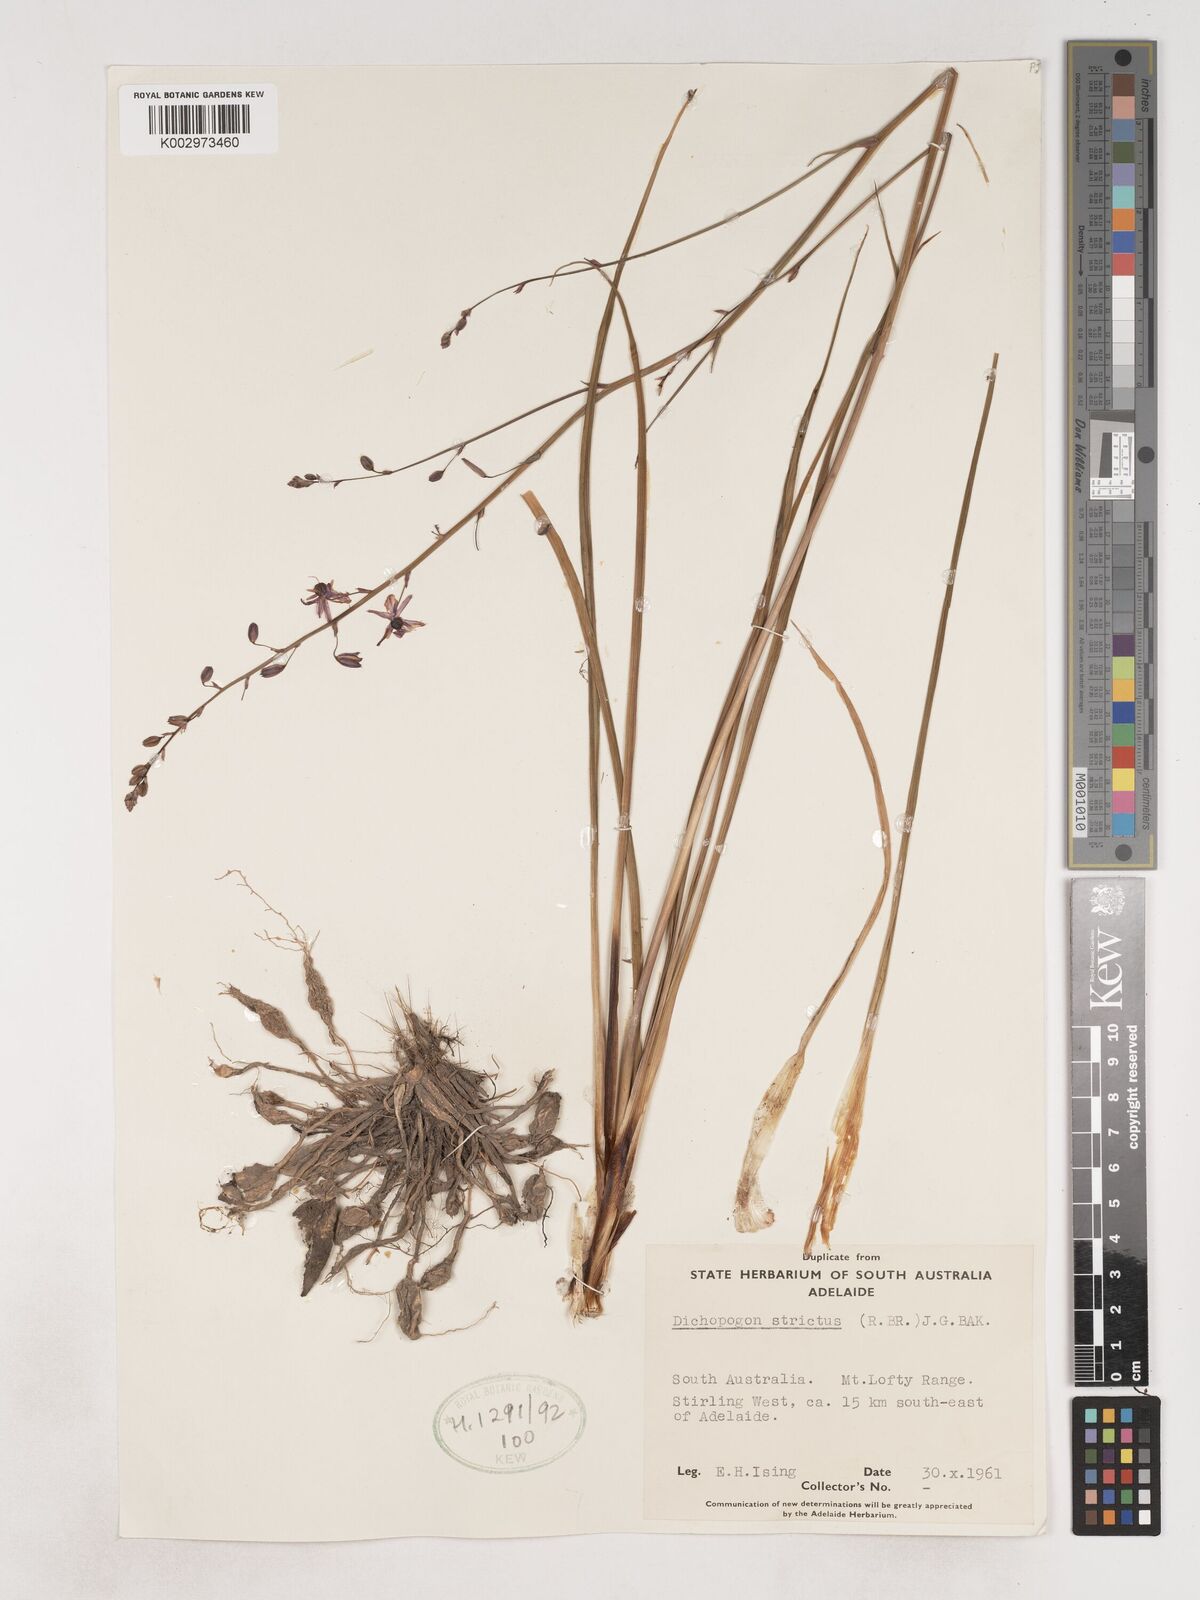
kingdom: Plantae
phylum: Tracheophyta
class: Liliopsida
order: Asparagales
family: Asparagaceae
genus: Arthropodium
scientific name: Arthropodium strictum
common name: Chocolate-lily
